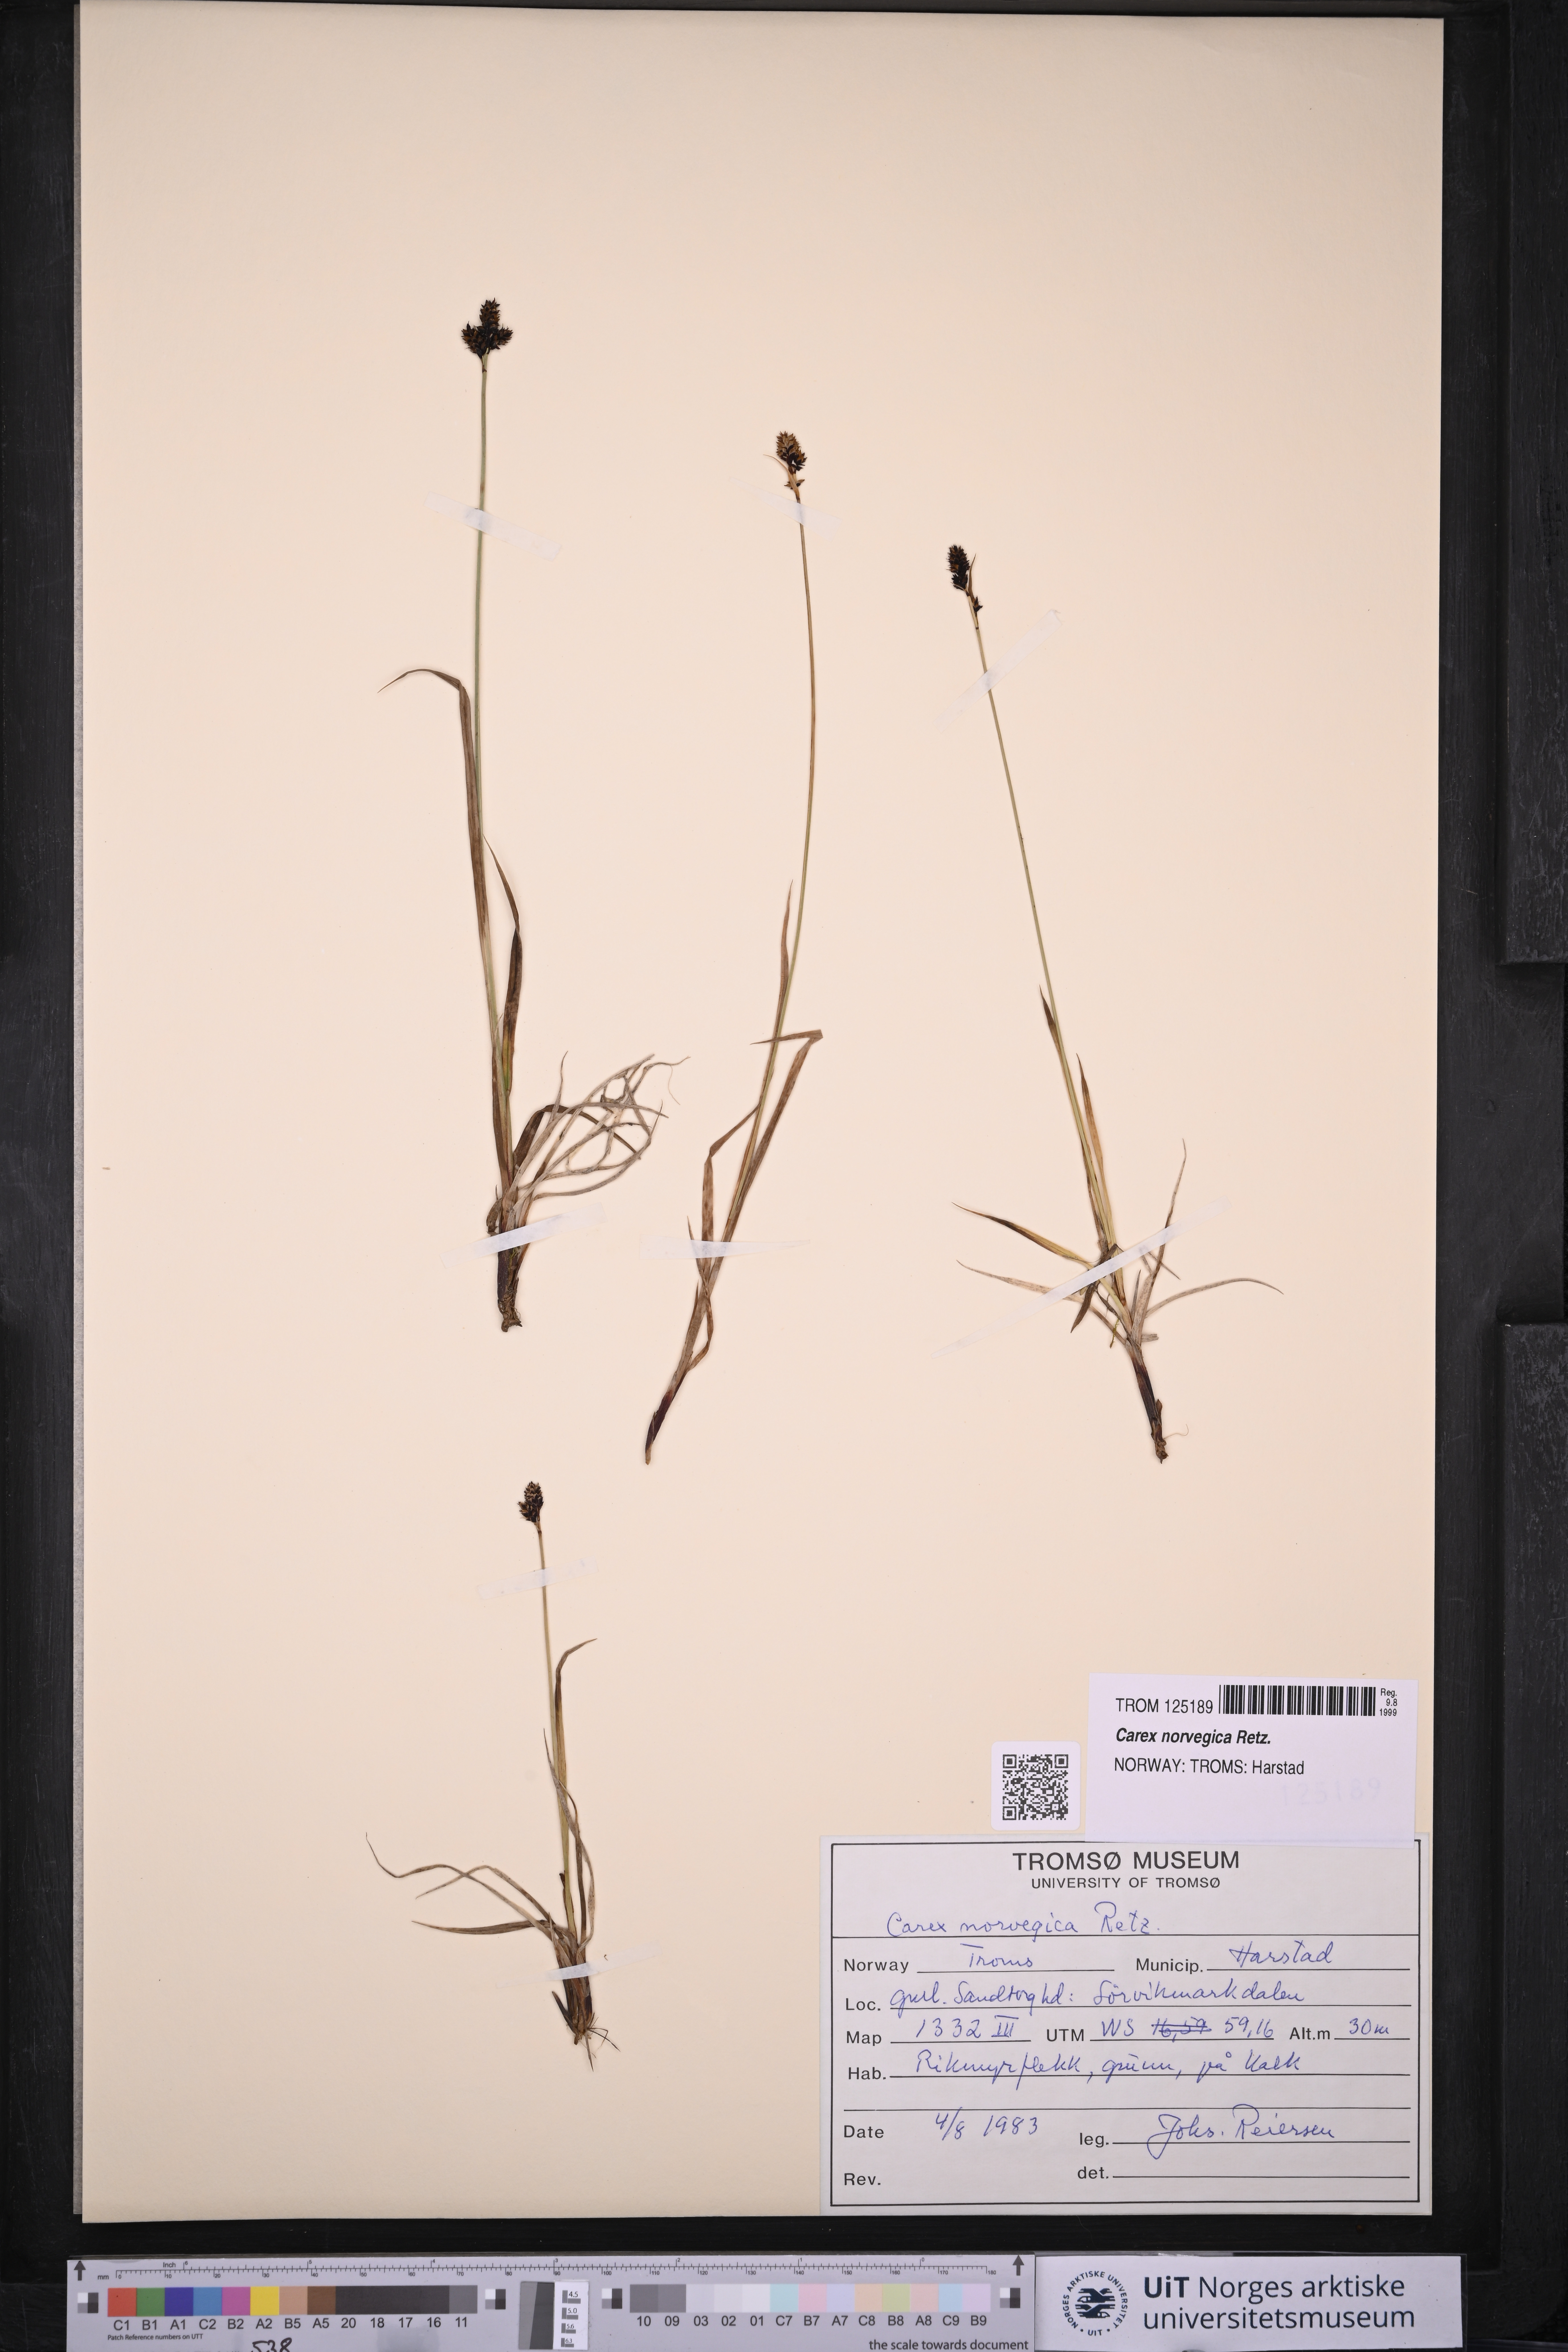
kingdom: Plantae
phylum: Tracheophyta
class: Liliopsida
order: Poales
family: Cyperaceae
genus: Carex
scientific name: Carex mackenziei
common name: Mackenzie's sedge
